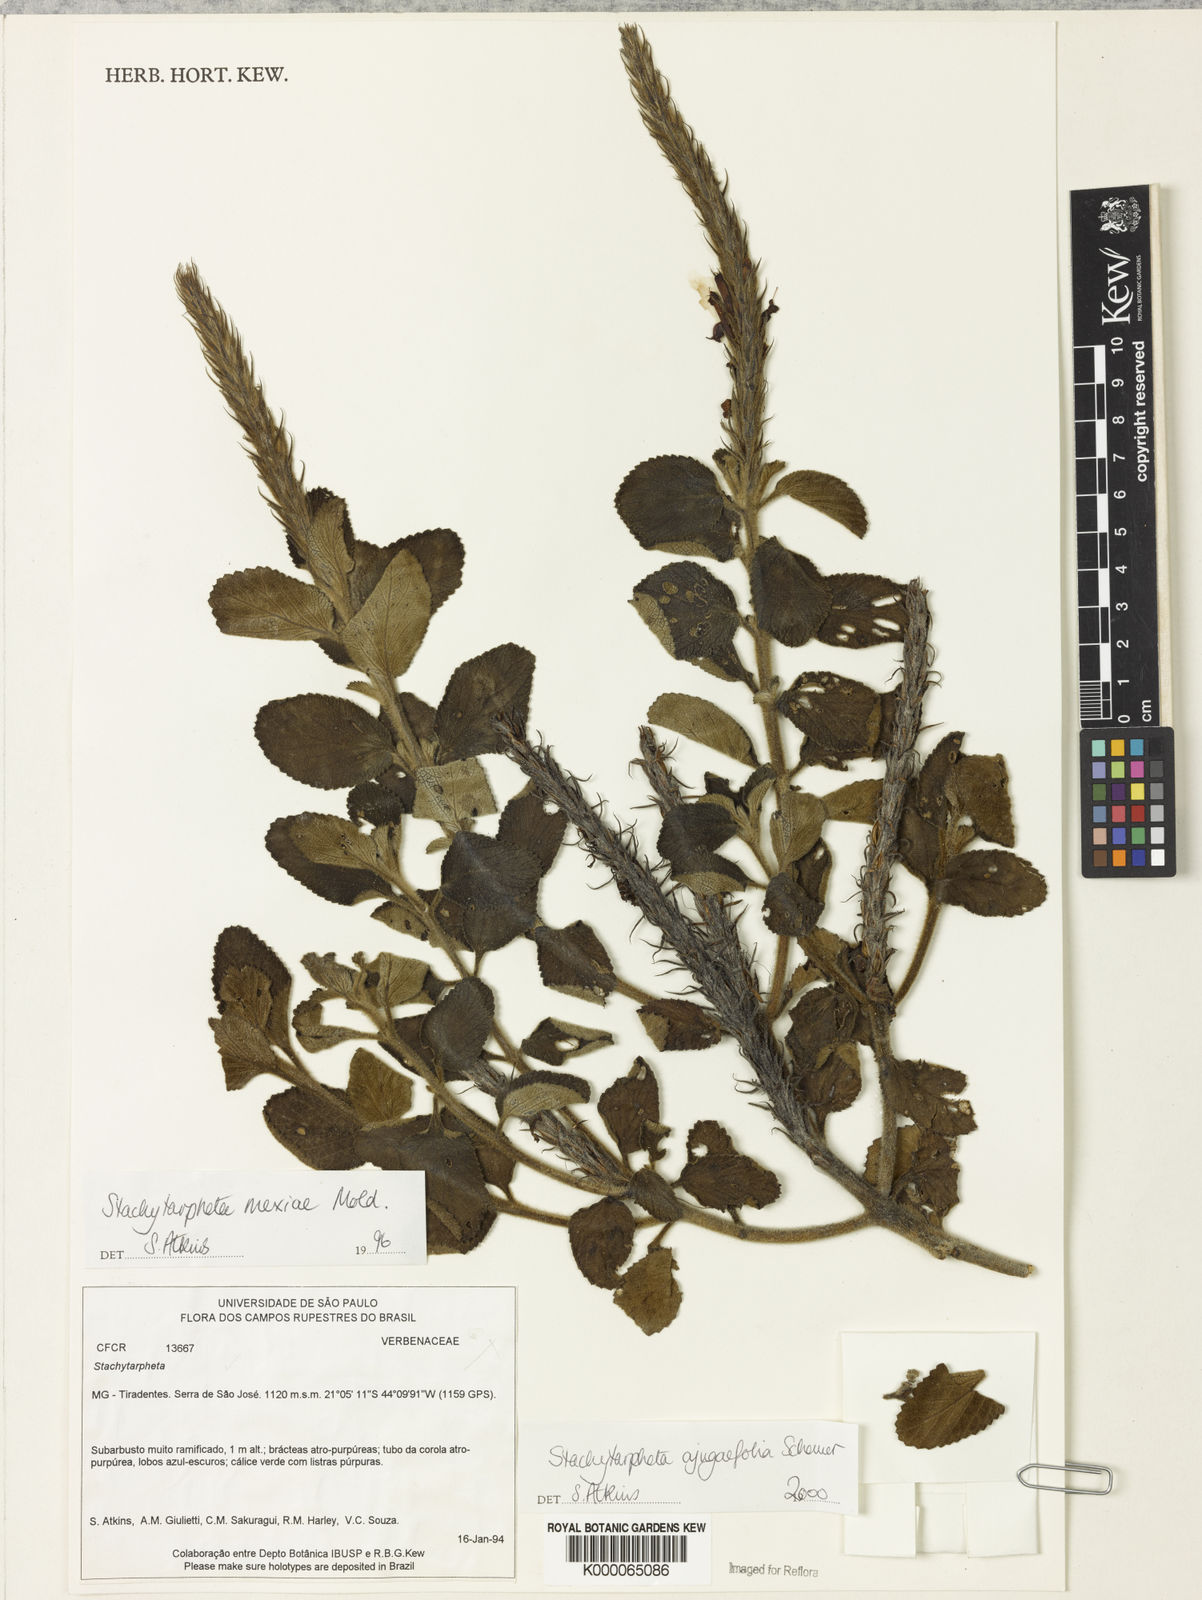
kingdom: Plantae
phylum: Tracheophyta
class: Magnoliopsida
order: Lamiales
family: Verbenaceae
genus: Stachytarpheta
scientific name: Stachytarpheta ajugifolia
